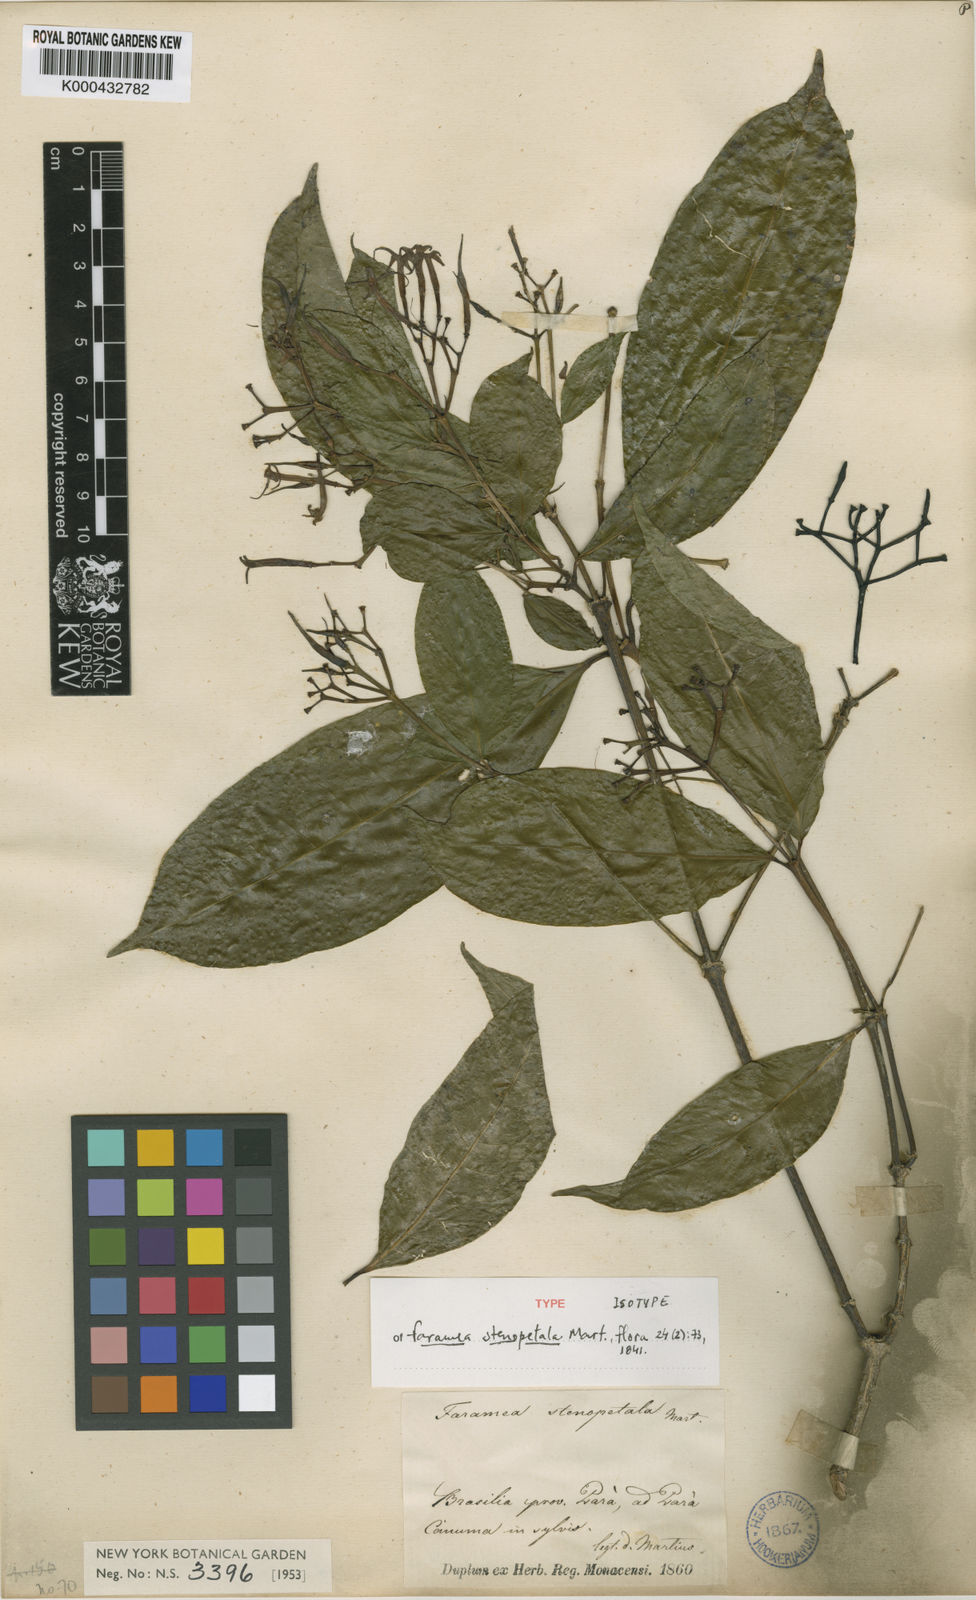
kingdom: Plantae
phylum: Tracheophyta
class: Magnoliopsida
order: Gentianales
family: Rubiaceae
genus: Faramea
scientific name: Faramea stenopetala
